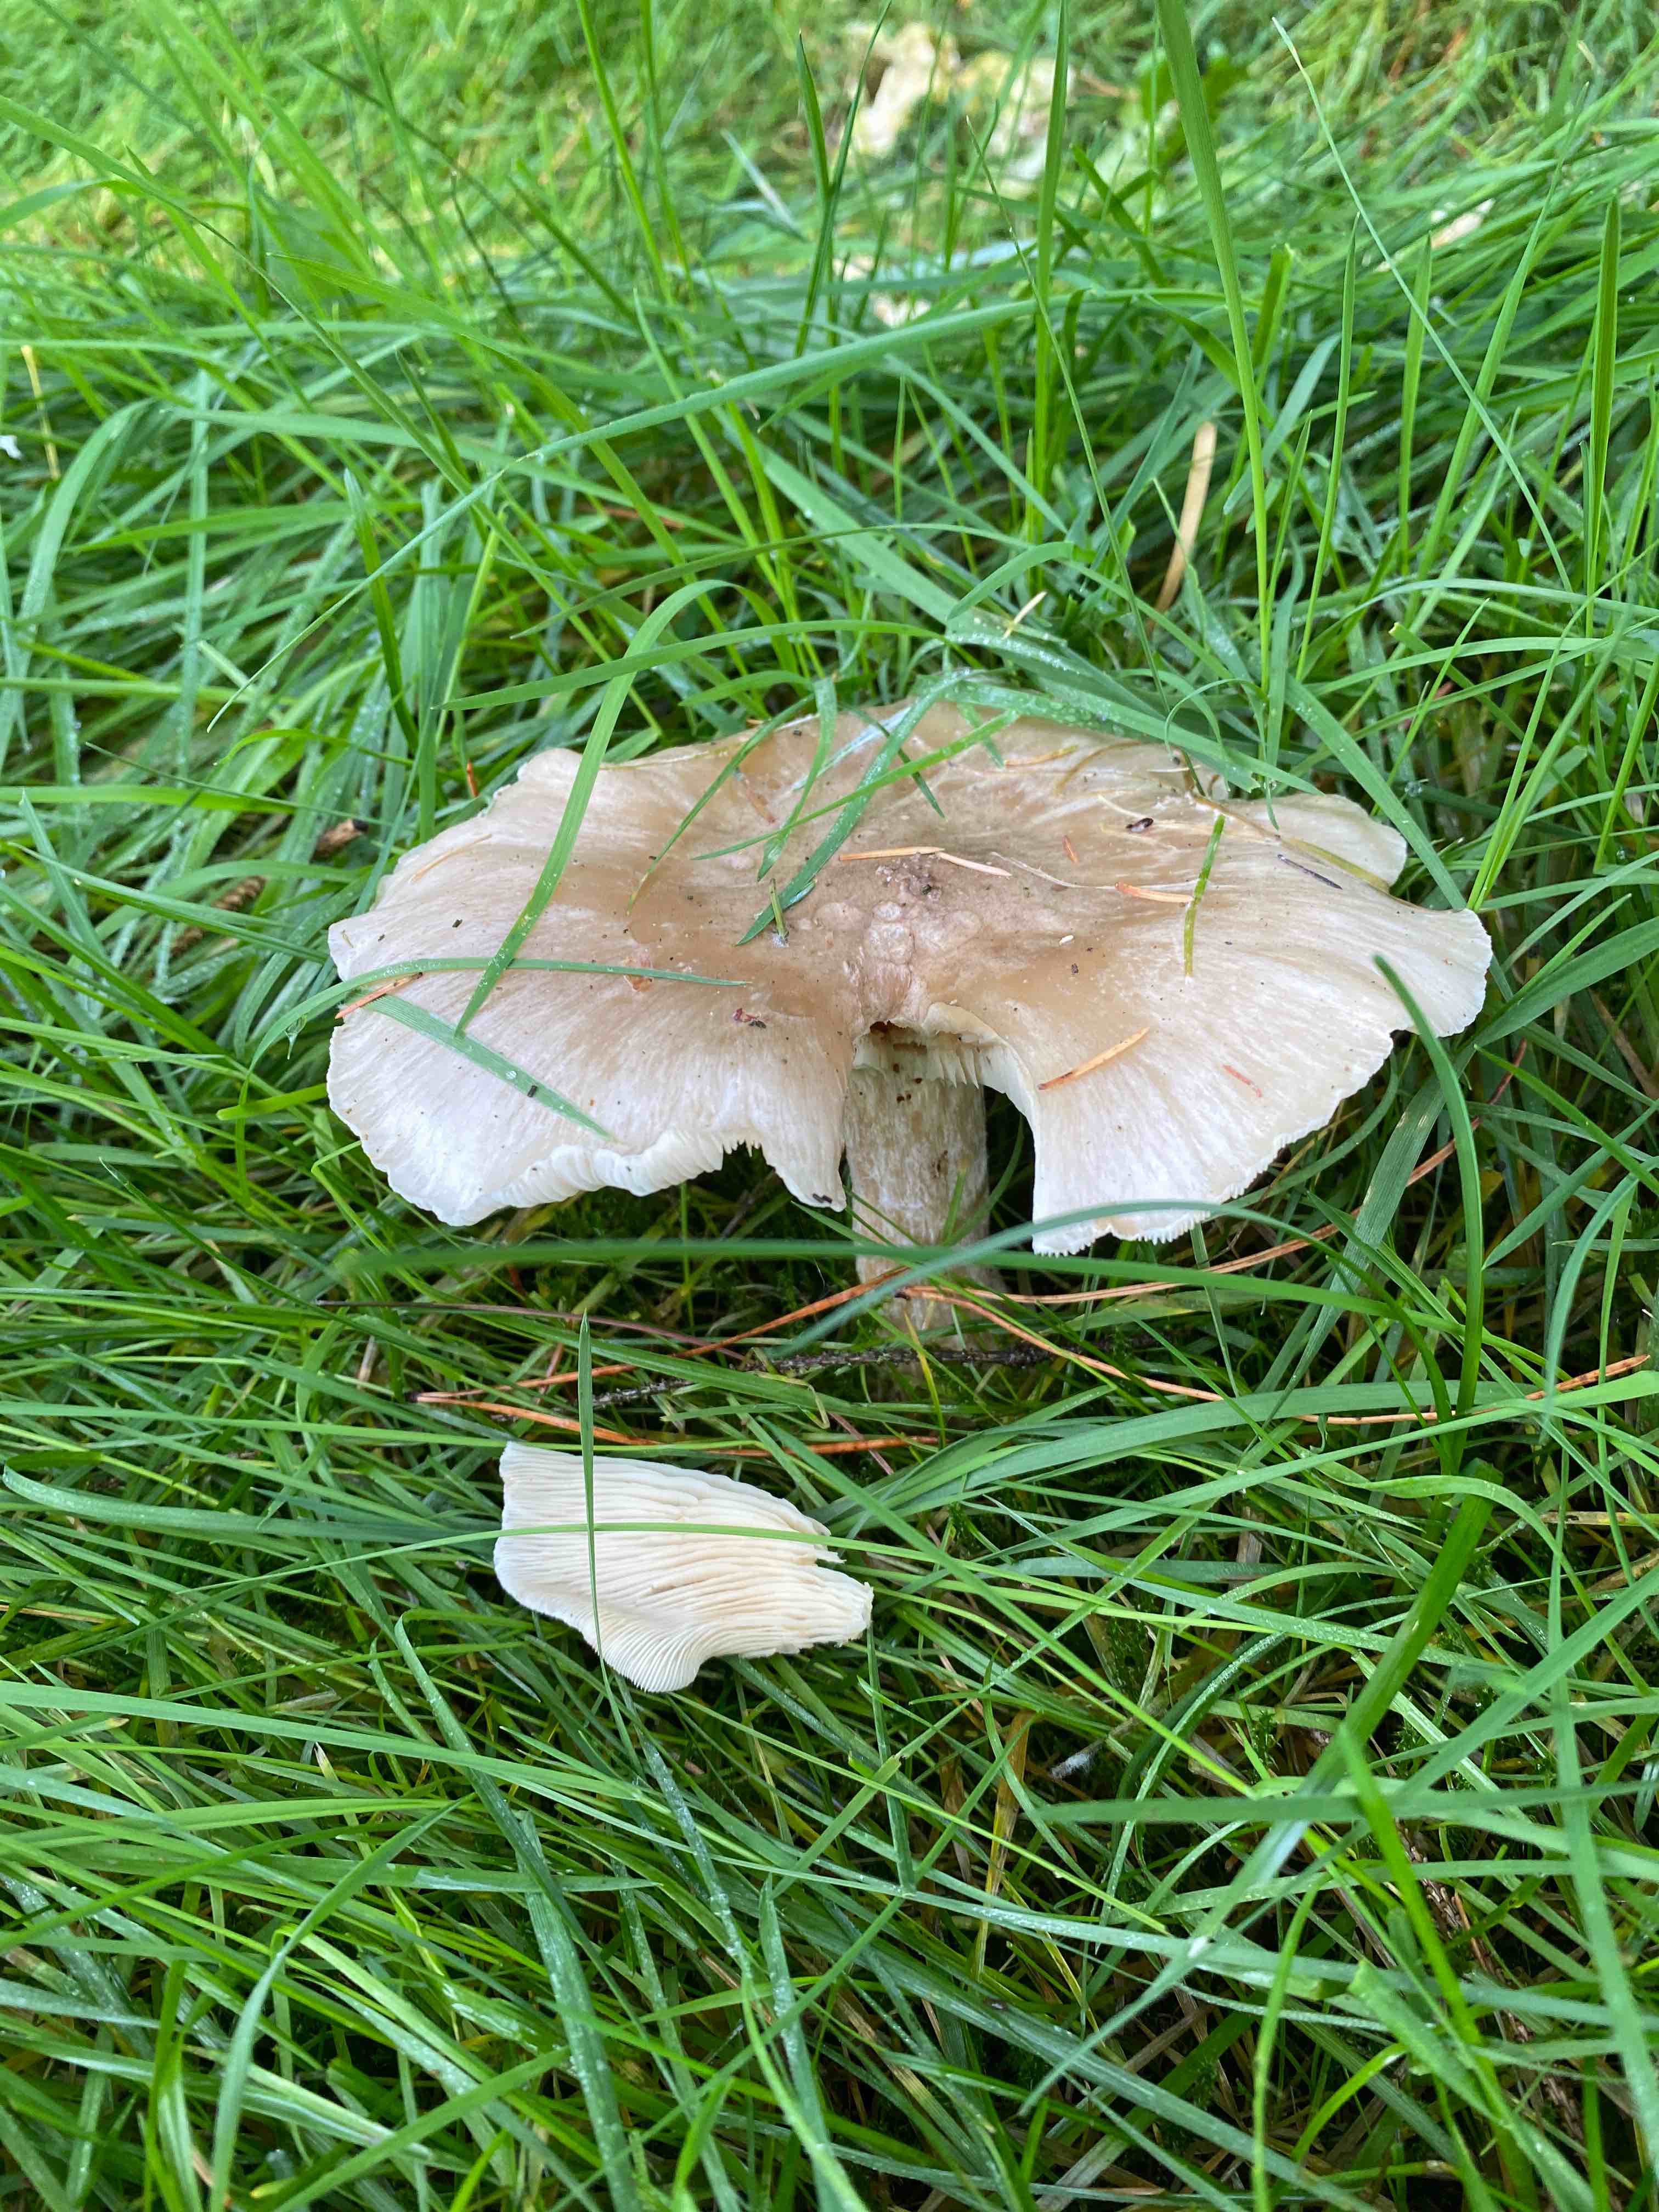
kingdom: Fungi
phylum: Basidiomycota
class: Agaricomycetes
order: Agaricales
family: Tricholomataceae
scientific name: Tricholomataceae
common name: ridderhatfamilien
